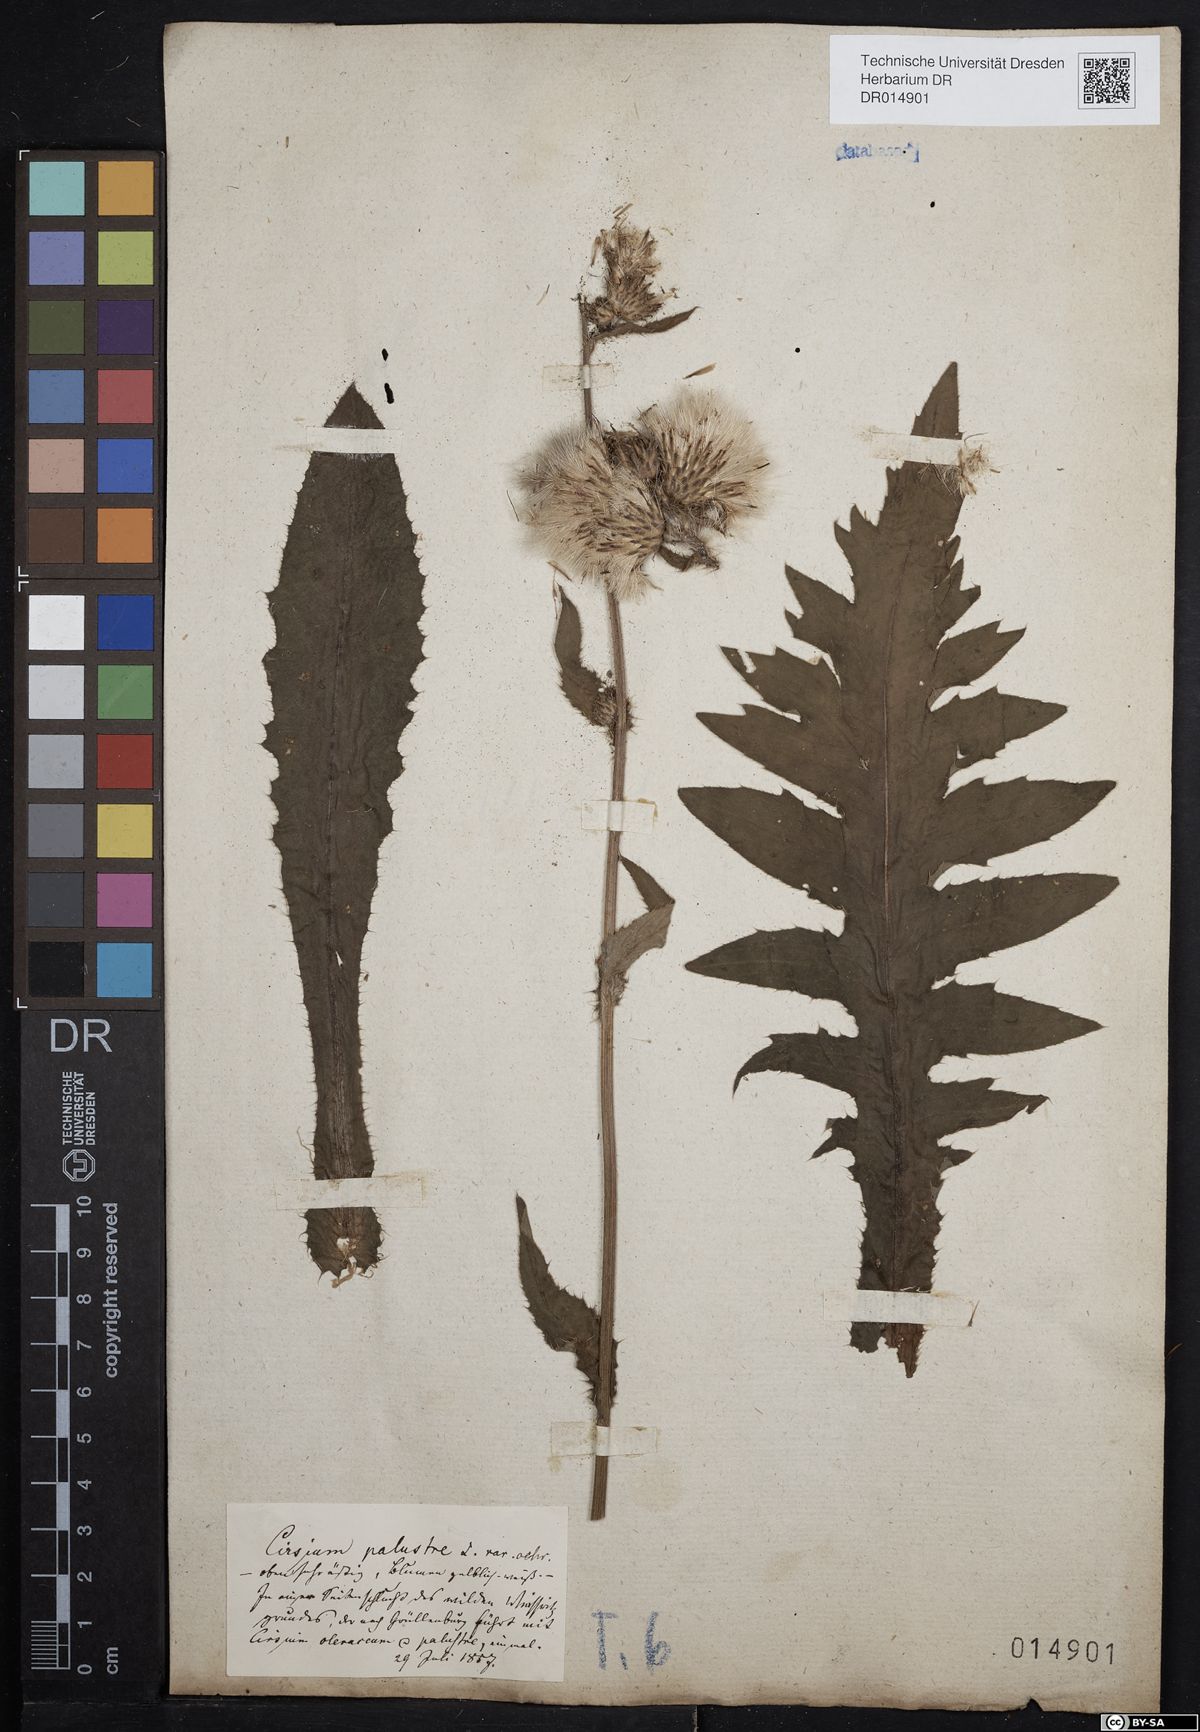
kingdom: Plantae
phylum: Tracheophyta
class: Magnoliopsida
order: Asterales
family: Asteraceae
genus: Cirsium
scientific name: Cirsium palustre
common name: Marsh thistle
